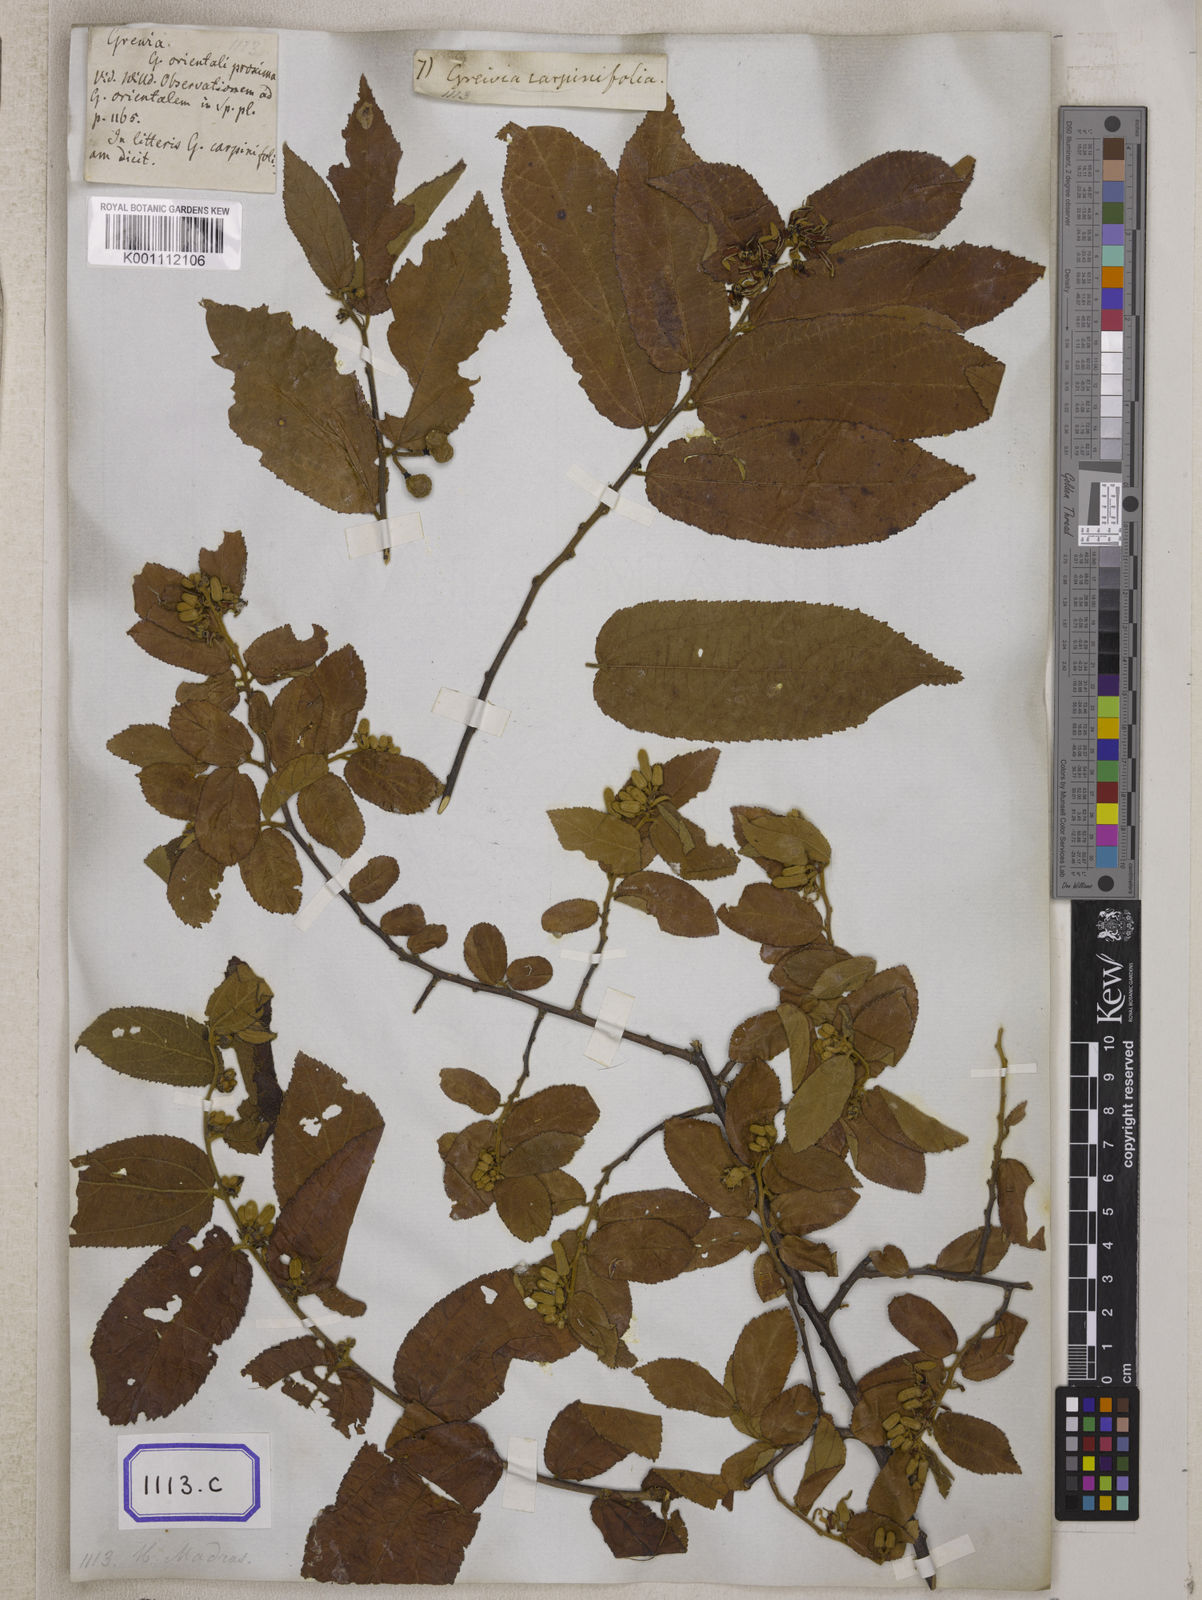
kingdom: Plantae
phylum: Tracheophyta
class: Magnoliopsida
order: Malvales
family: Malvaceae
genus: Grewia
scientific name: Grewia
